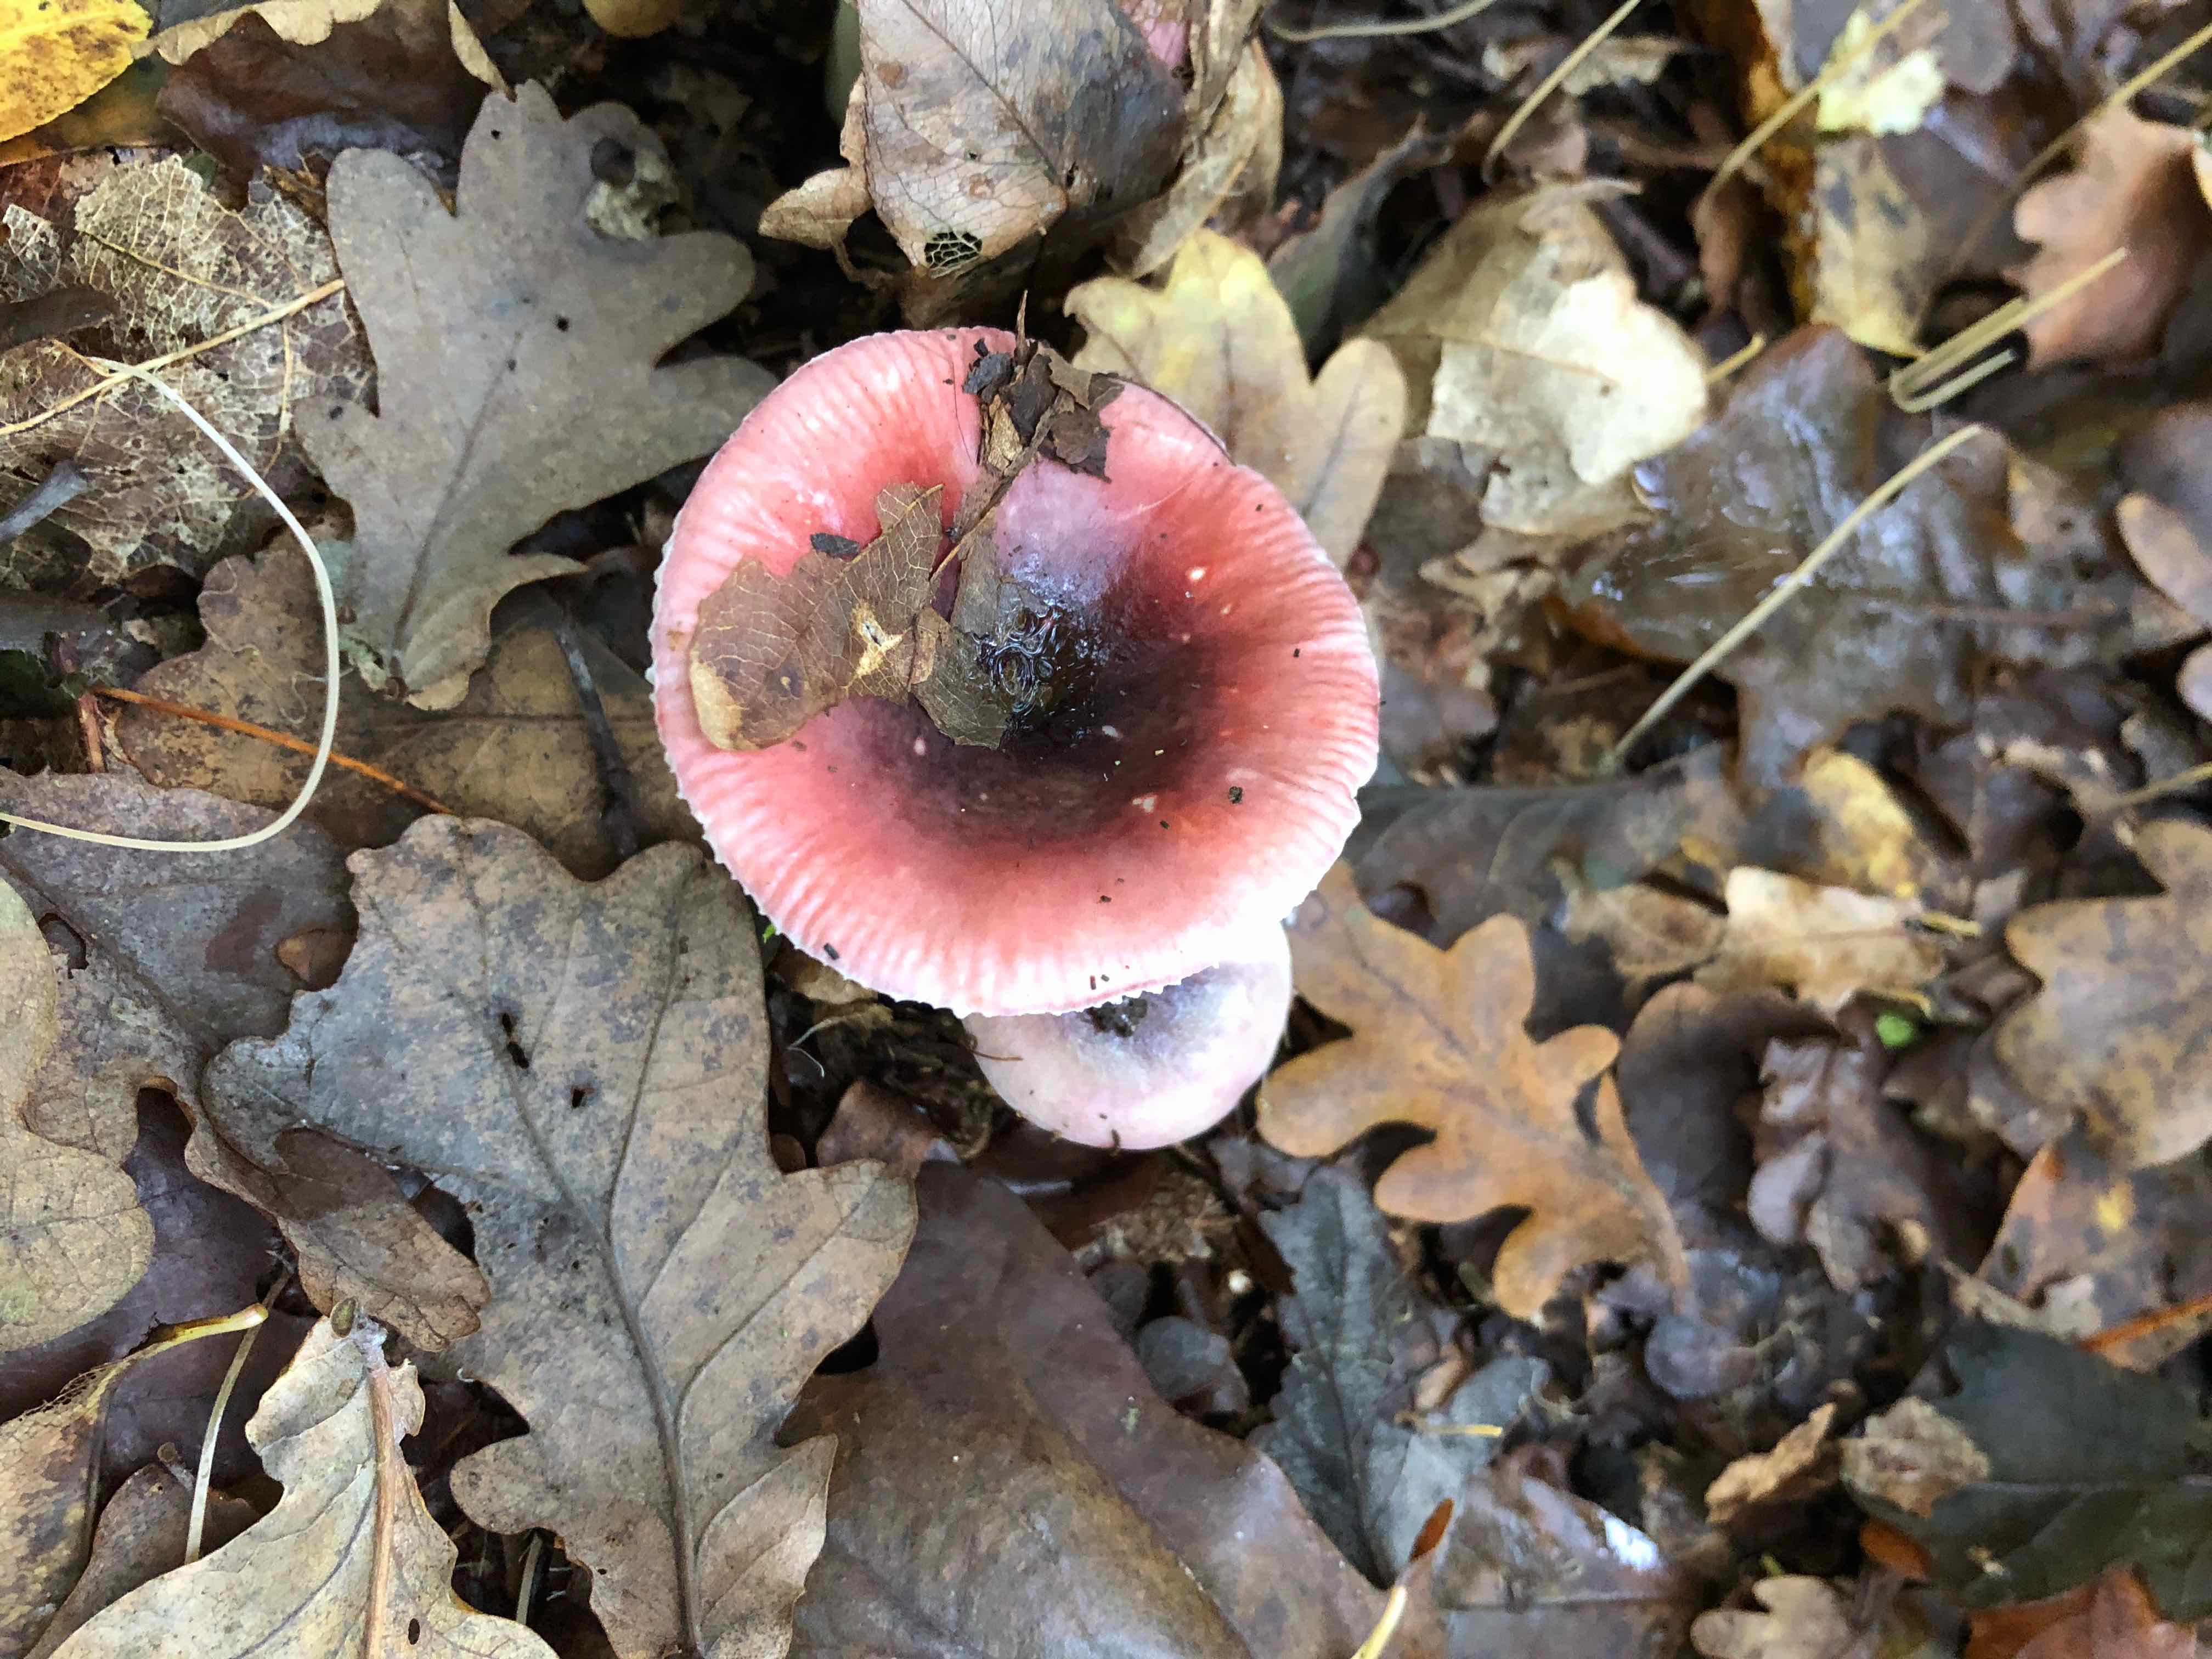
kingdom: Fungi
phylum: Basidiomycota
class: Agaricomycetes
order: Russulales
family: Russulaceae
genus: Russula
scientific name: Russula fragilis
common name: Fragile brittlegill
